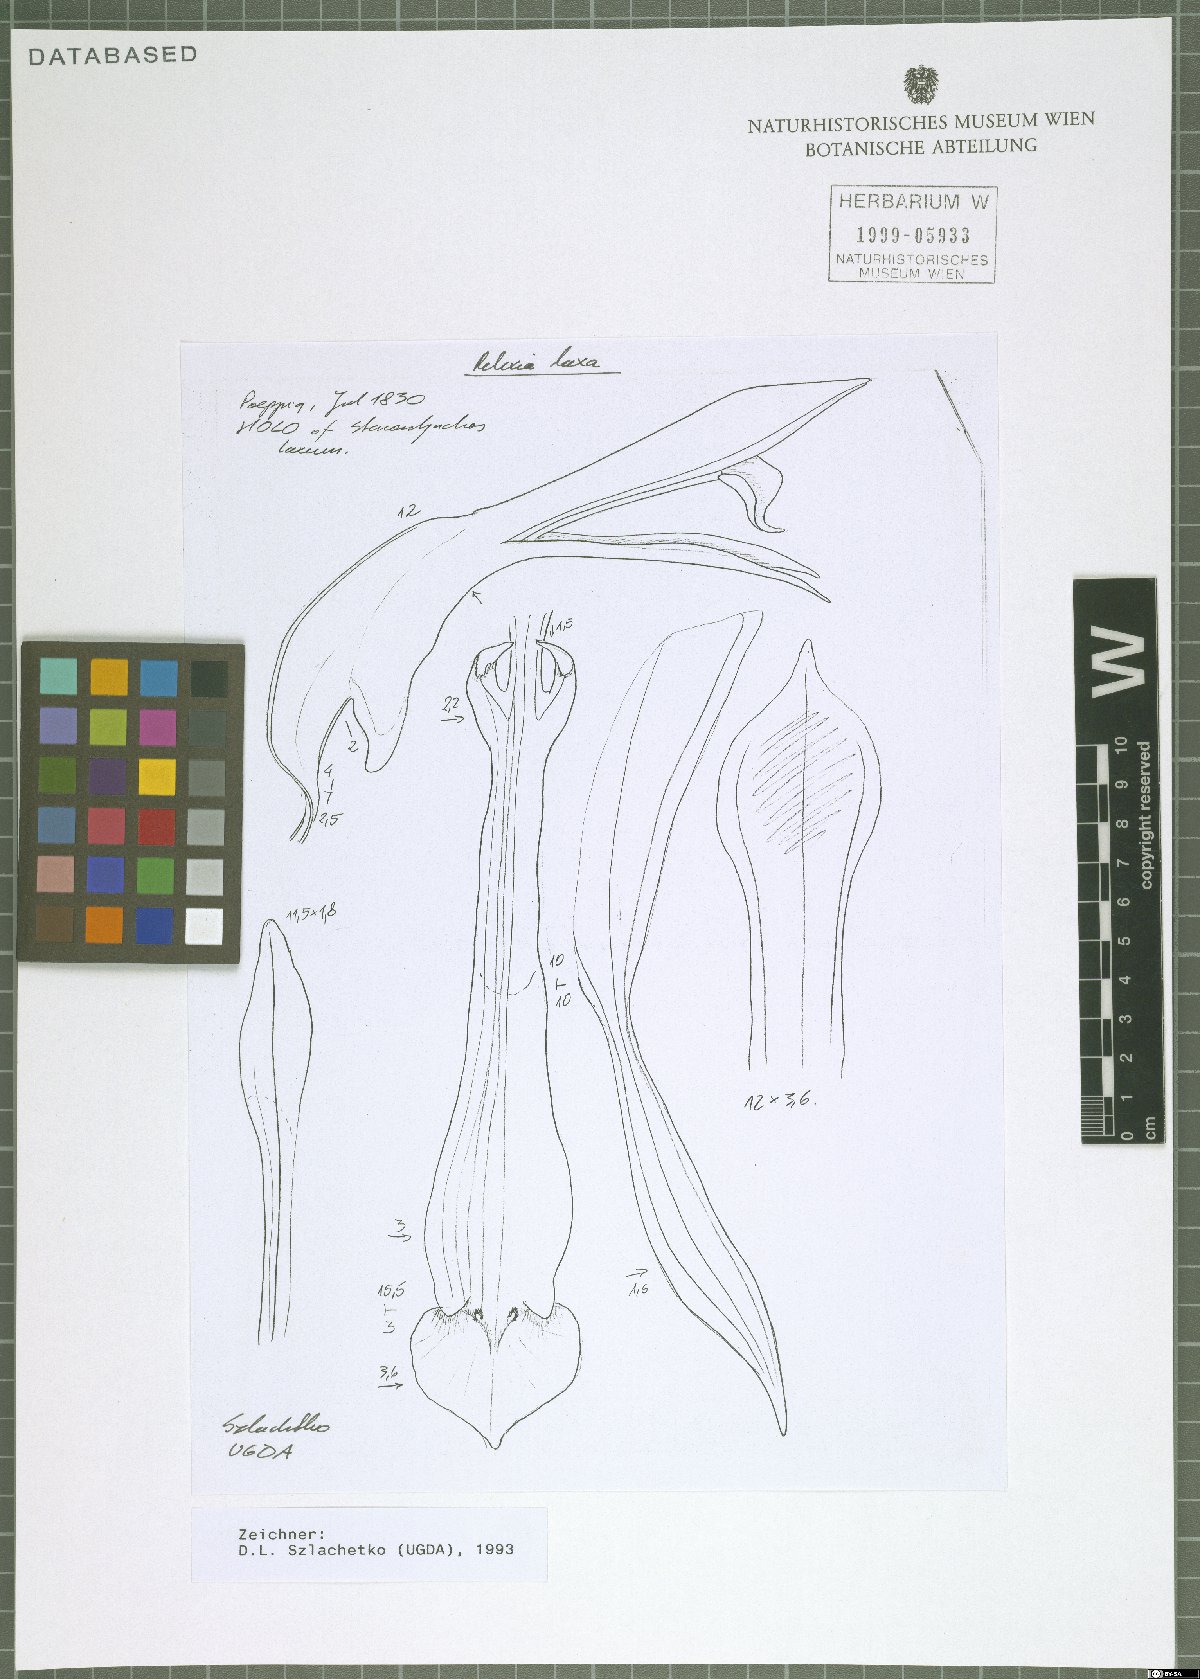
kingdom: Plantae
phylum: Tracheophyta
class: Liliopsida
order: Asparagales
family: Orchidaceae
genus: Pelexia
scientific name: Pelexia laxa
